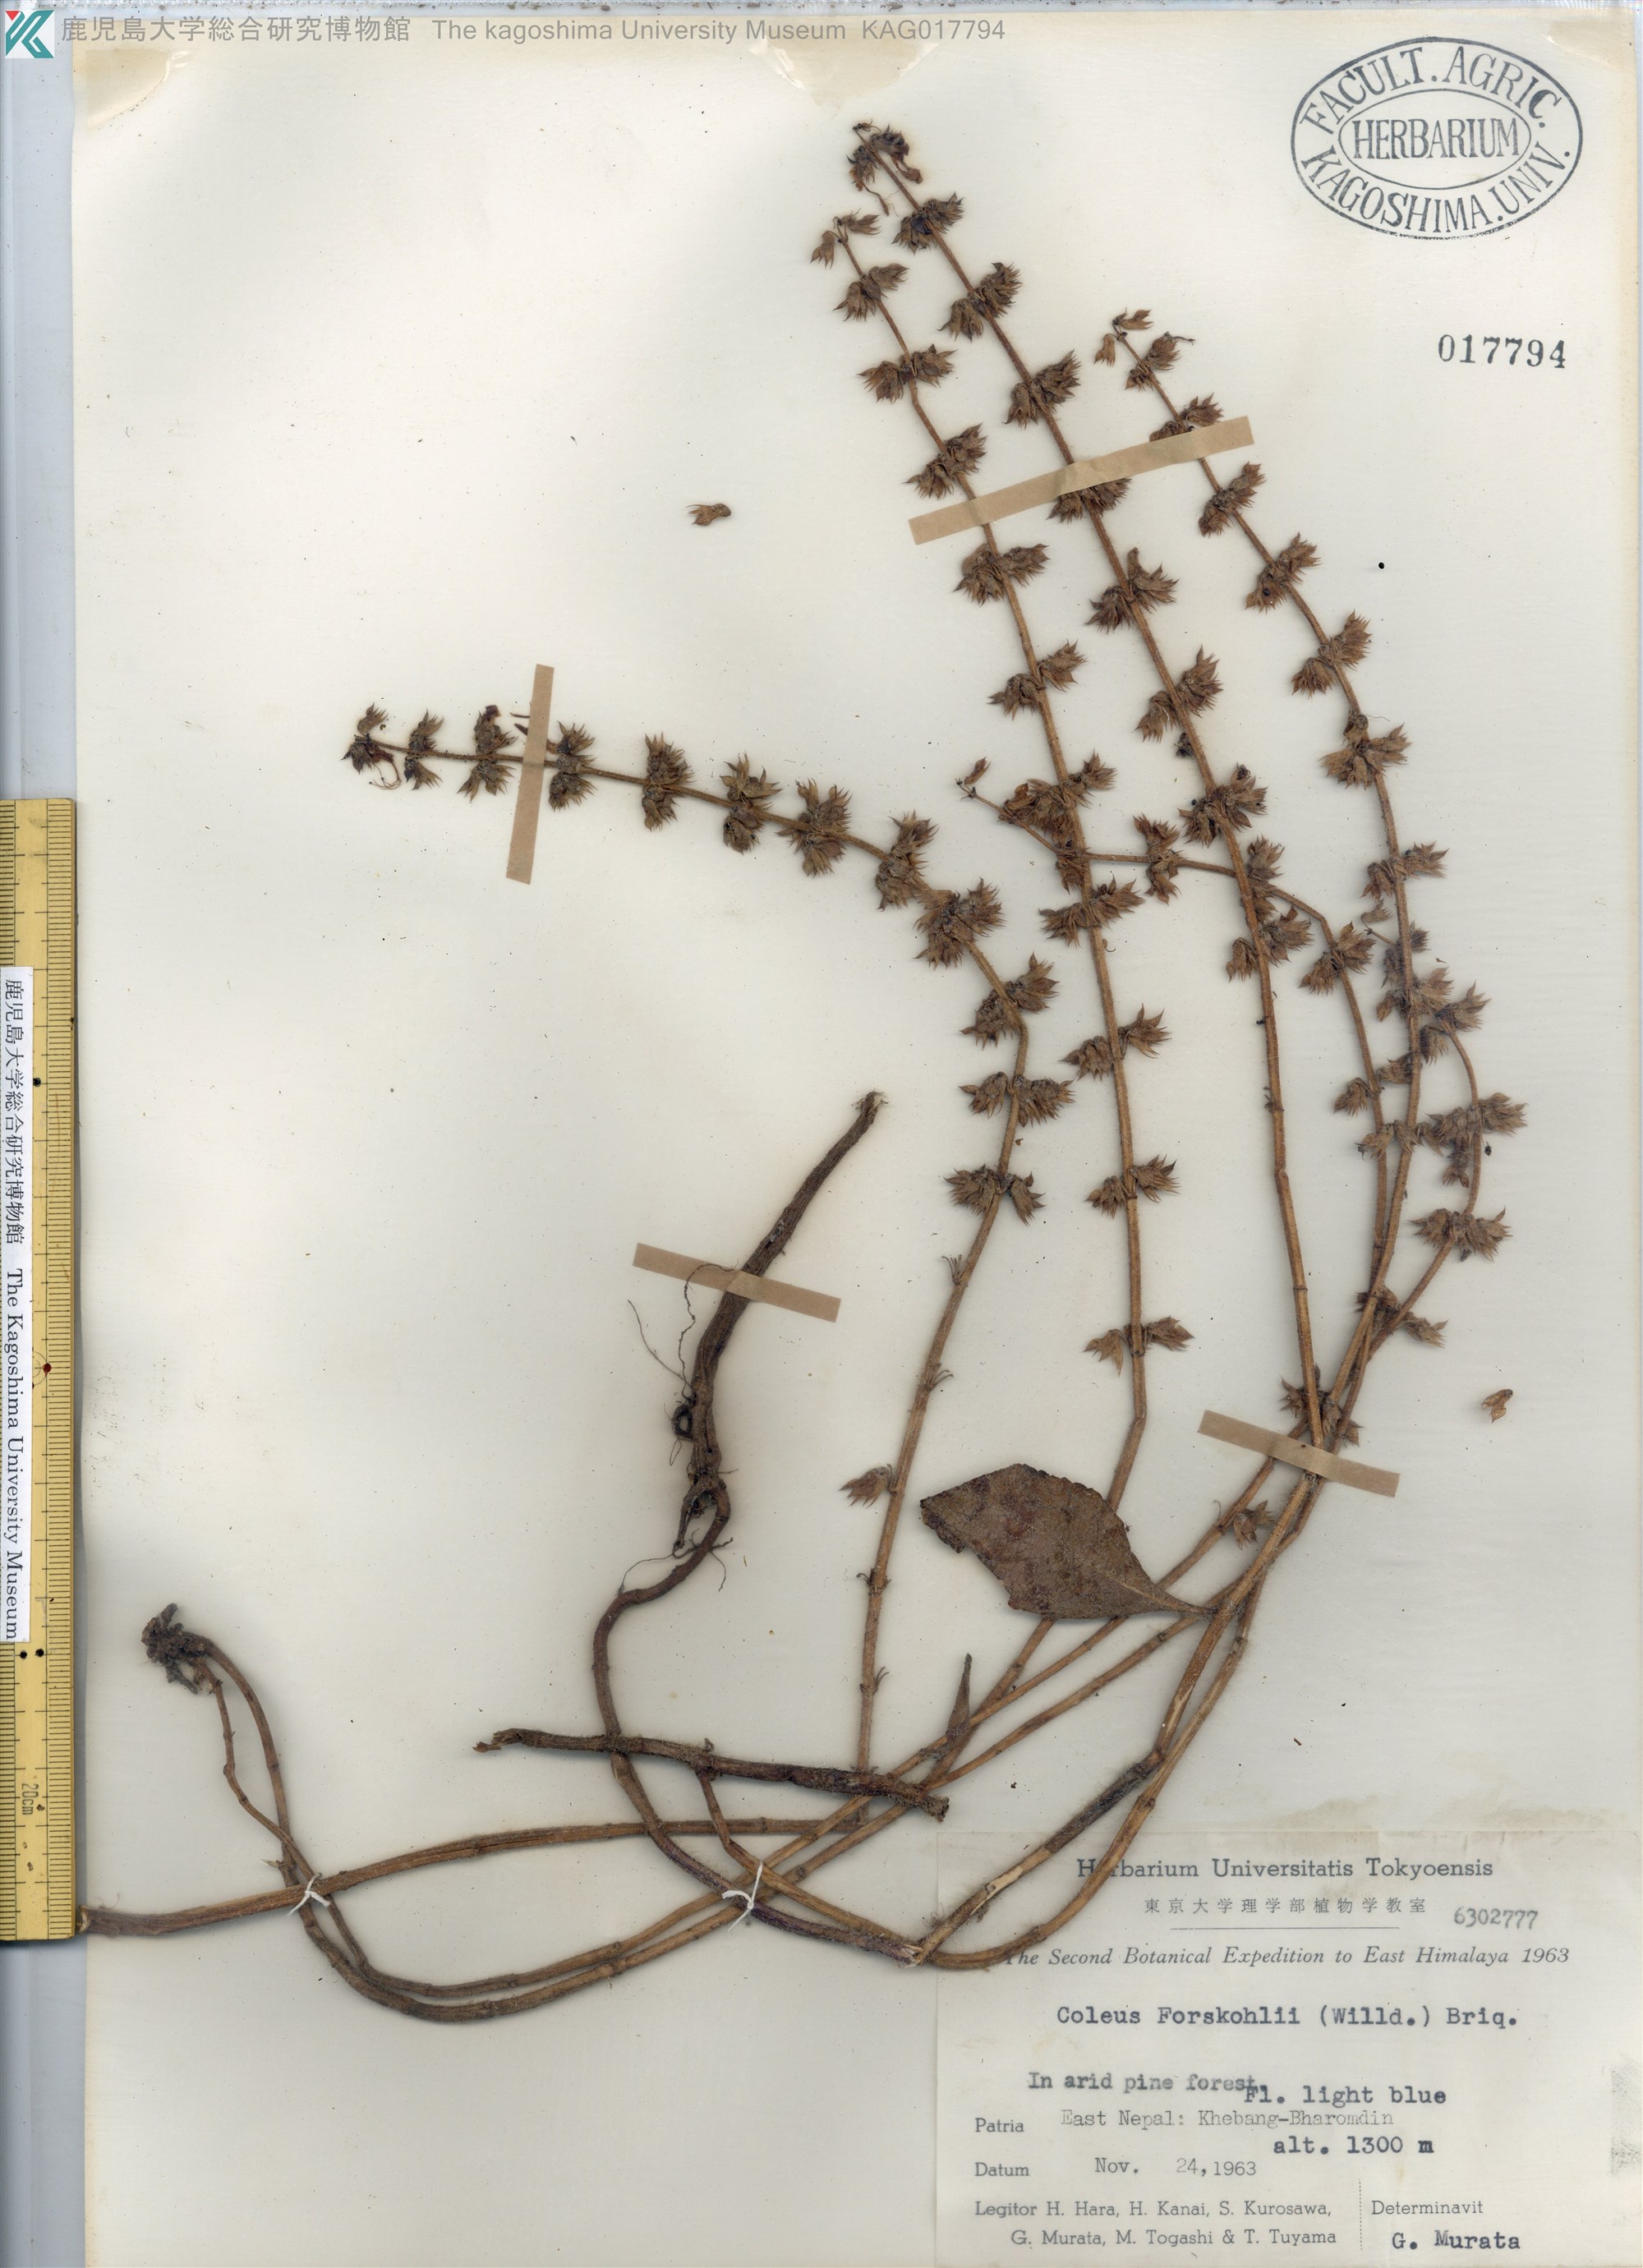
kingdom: Plantae
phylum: Tracheophyta
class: Magnoliopsida
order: Lamiales
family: Lamiaceae
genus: Coleus
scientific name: Coleus hadiensis
